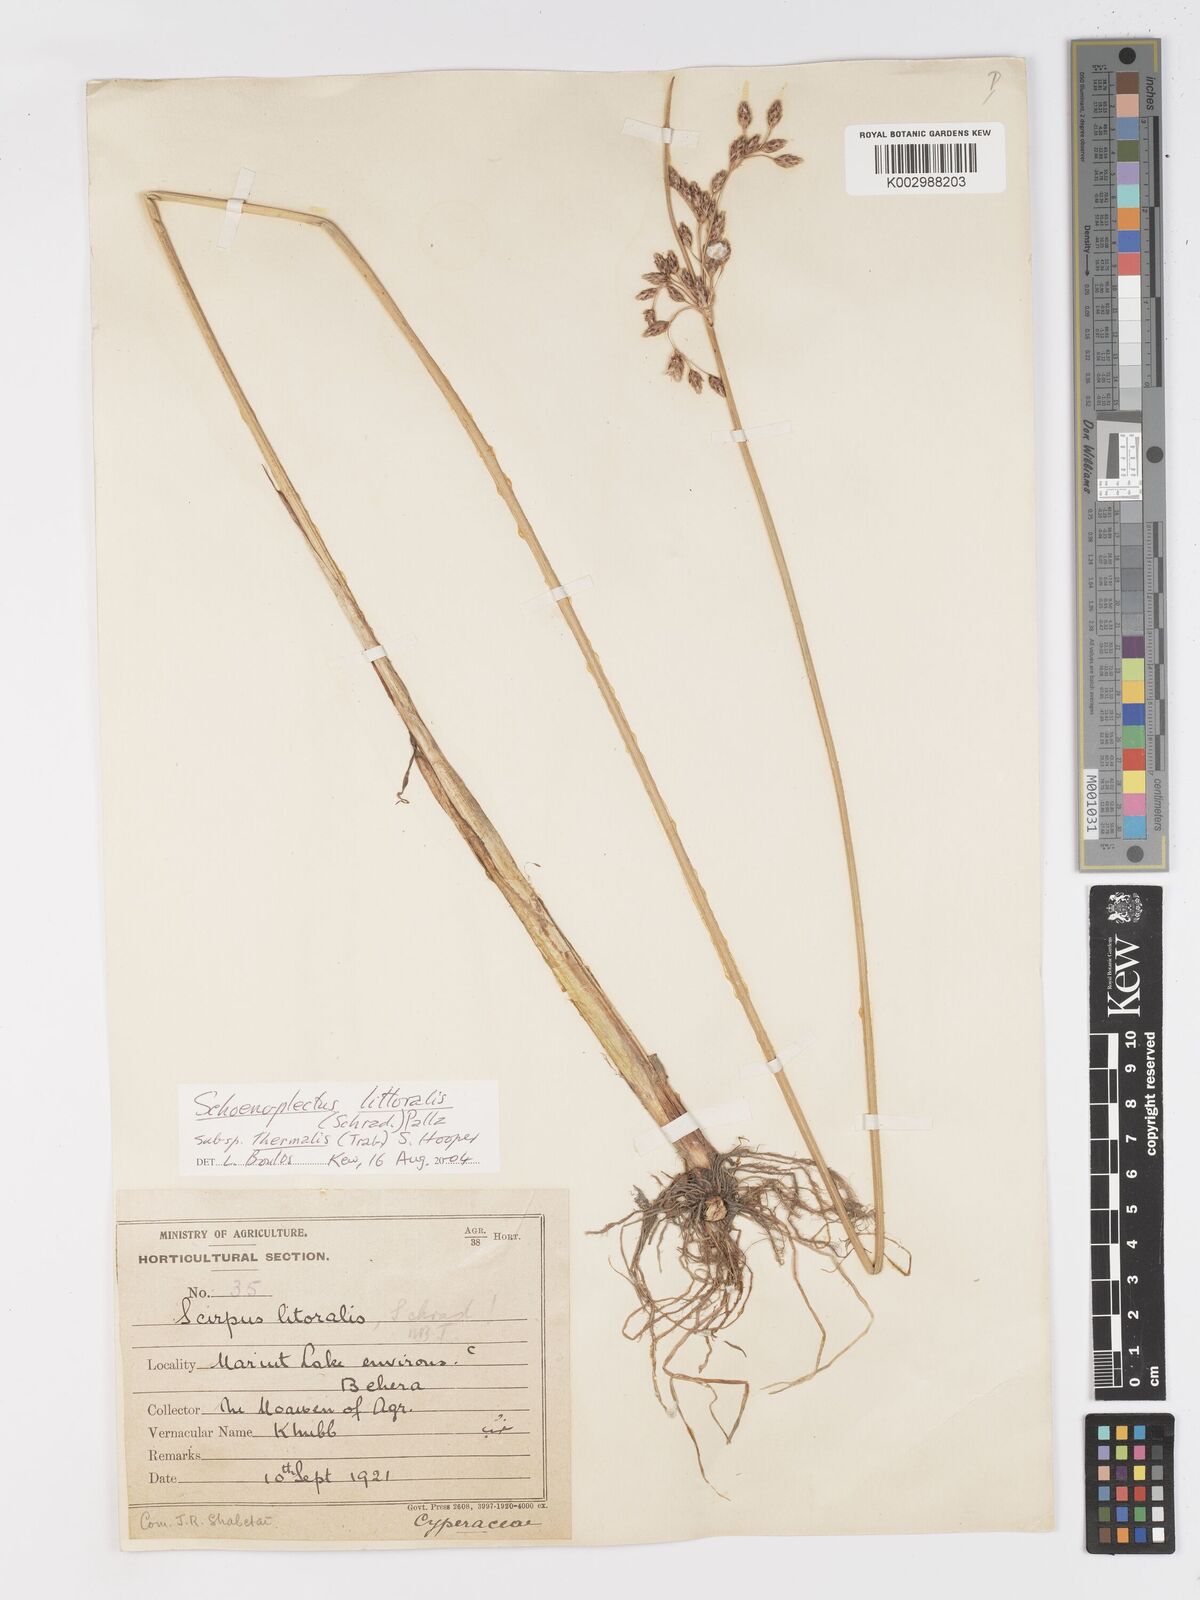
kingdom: Plantae
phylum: Tracheophyta
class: Liliopsida
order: Poales
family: Cyperaceae
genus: Schoenoplectus
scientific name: Schoenoplectus litoralis
